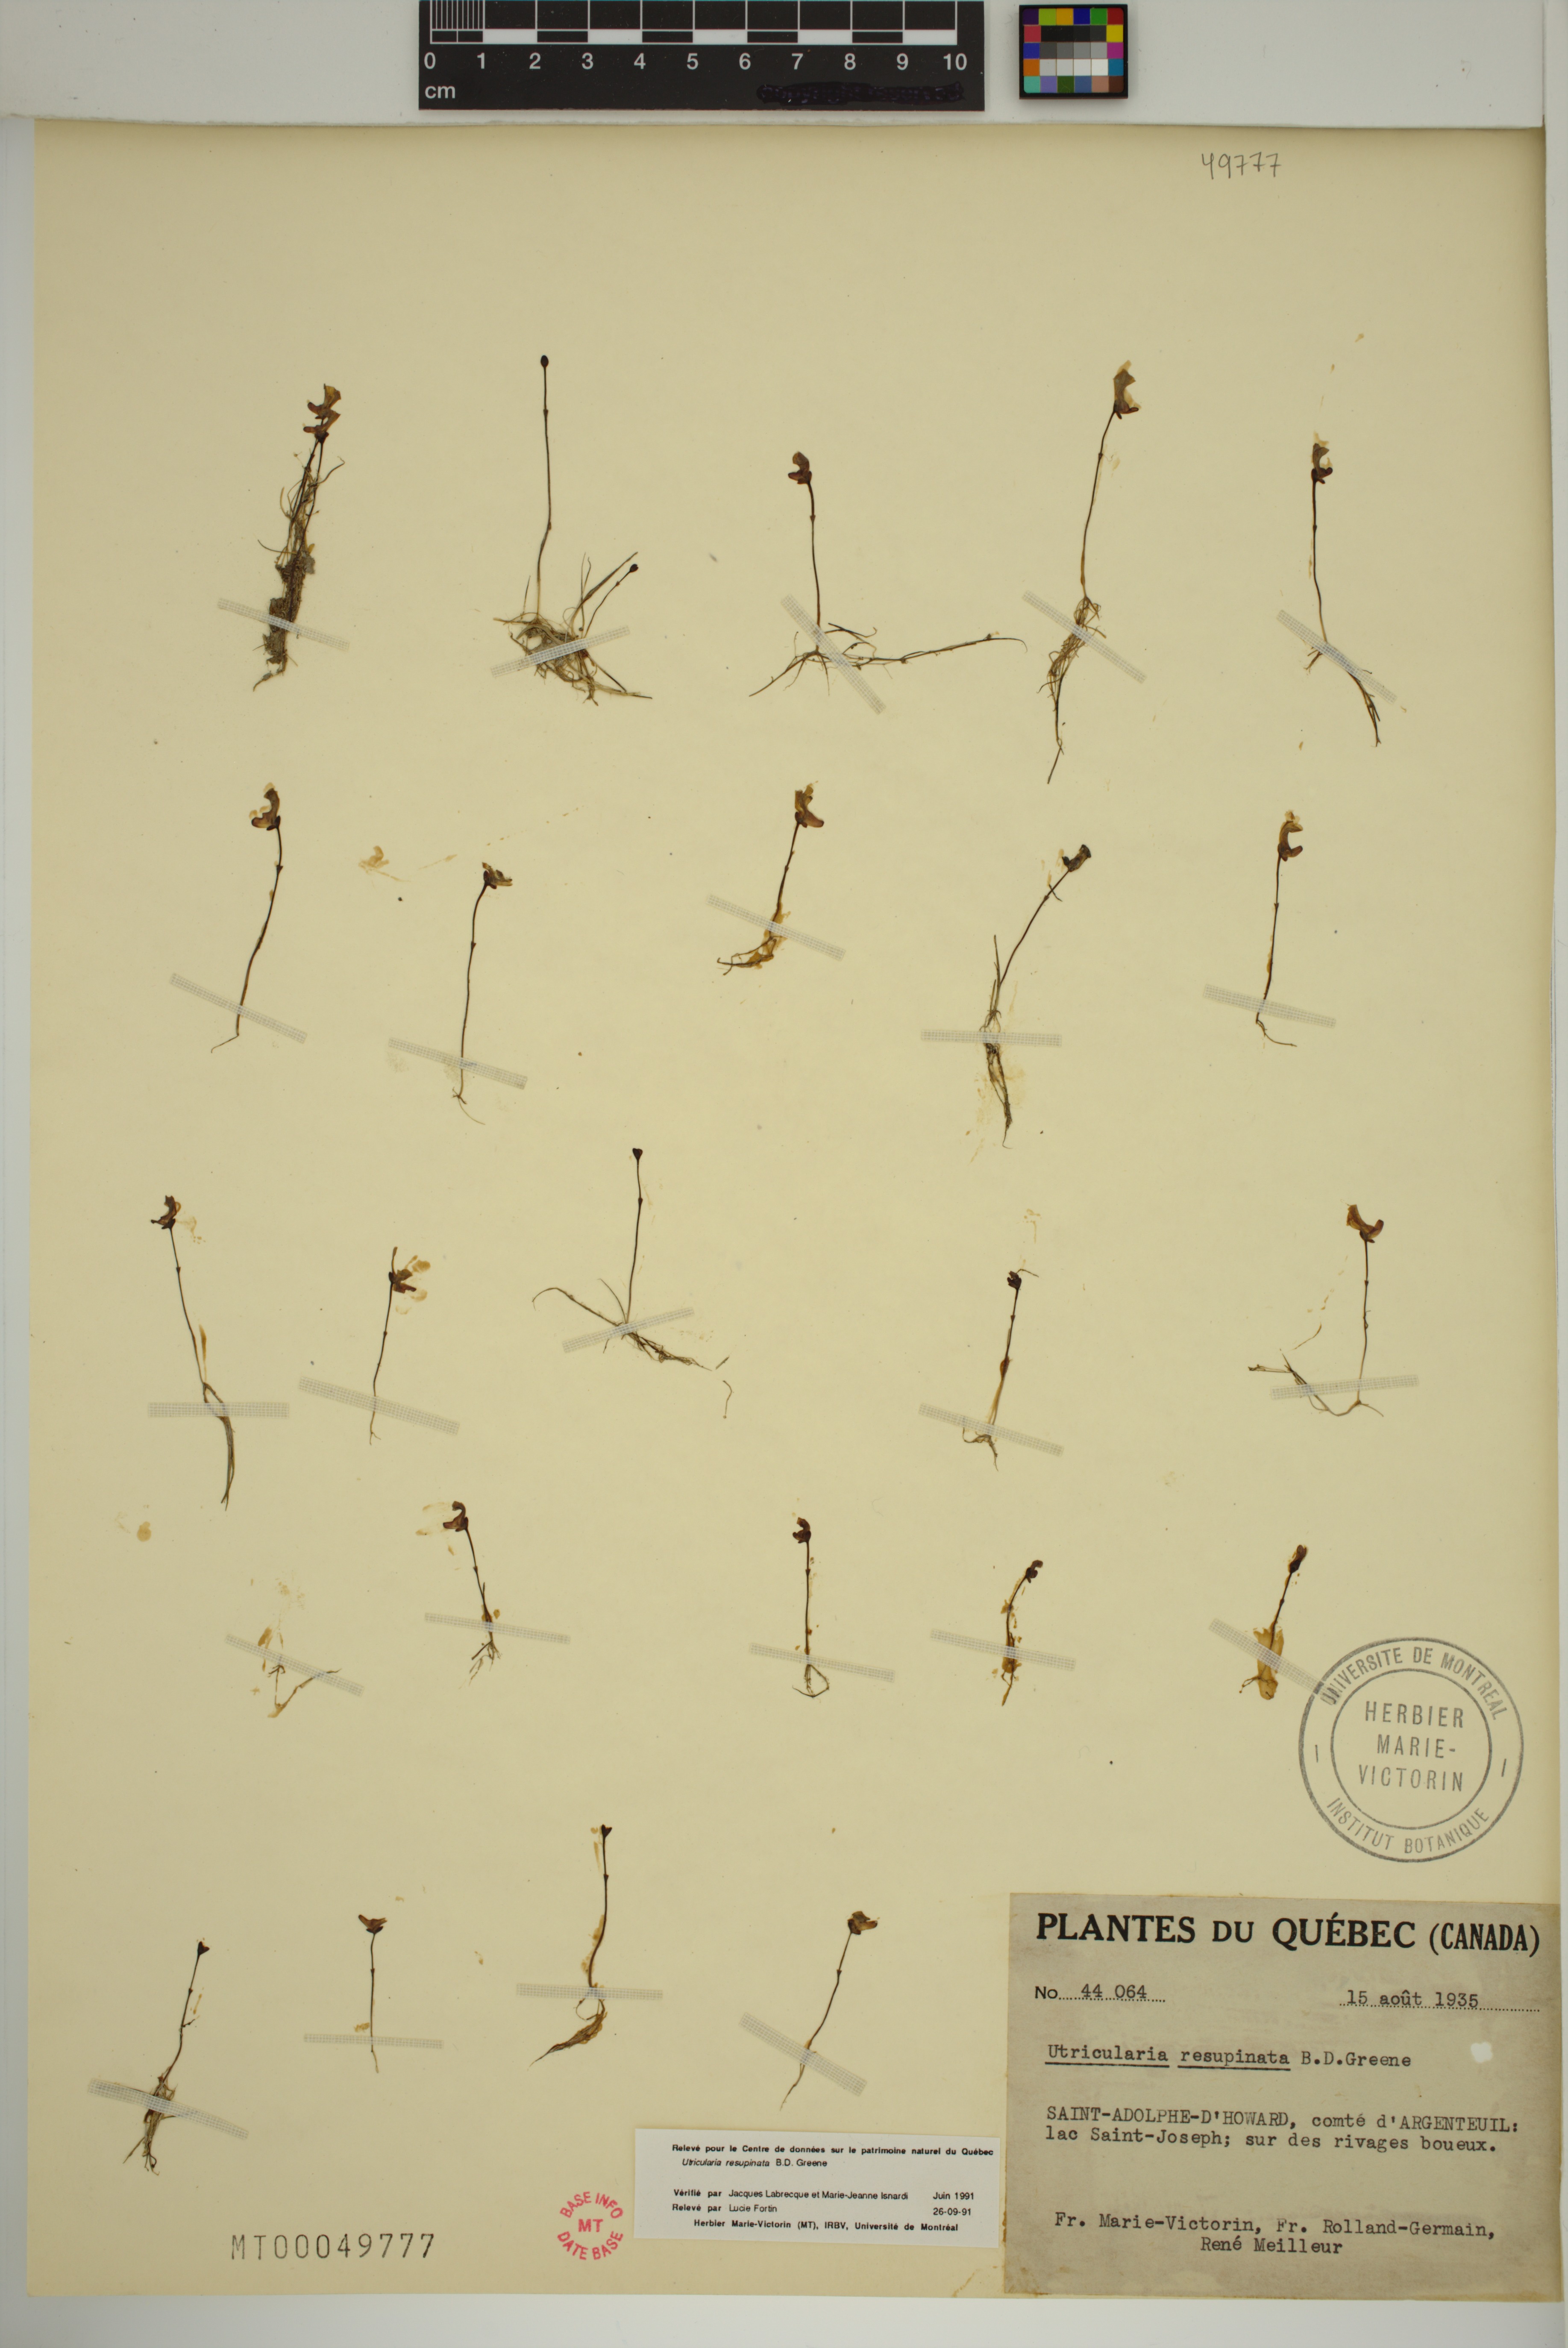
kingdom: Plantae
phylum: Tracheophyta
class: Magnoliopsida
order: Lamiales
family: Lentibulariaceae
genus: Utricularia
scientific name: Utricularia resupinata
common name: Northeastern bladderwort
